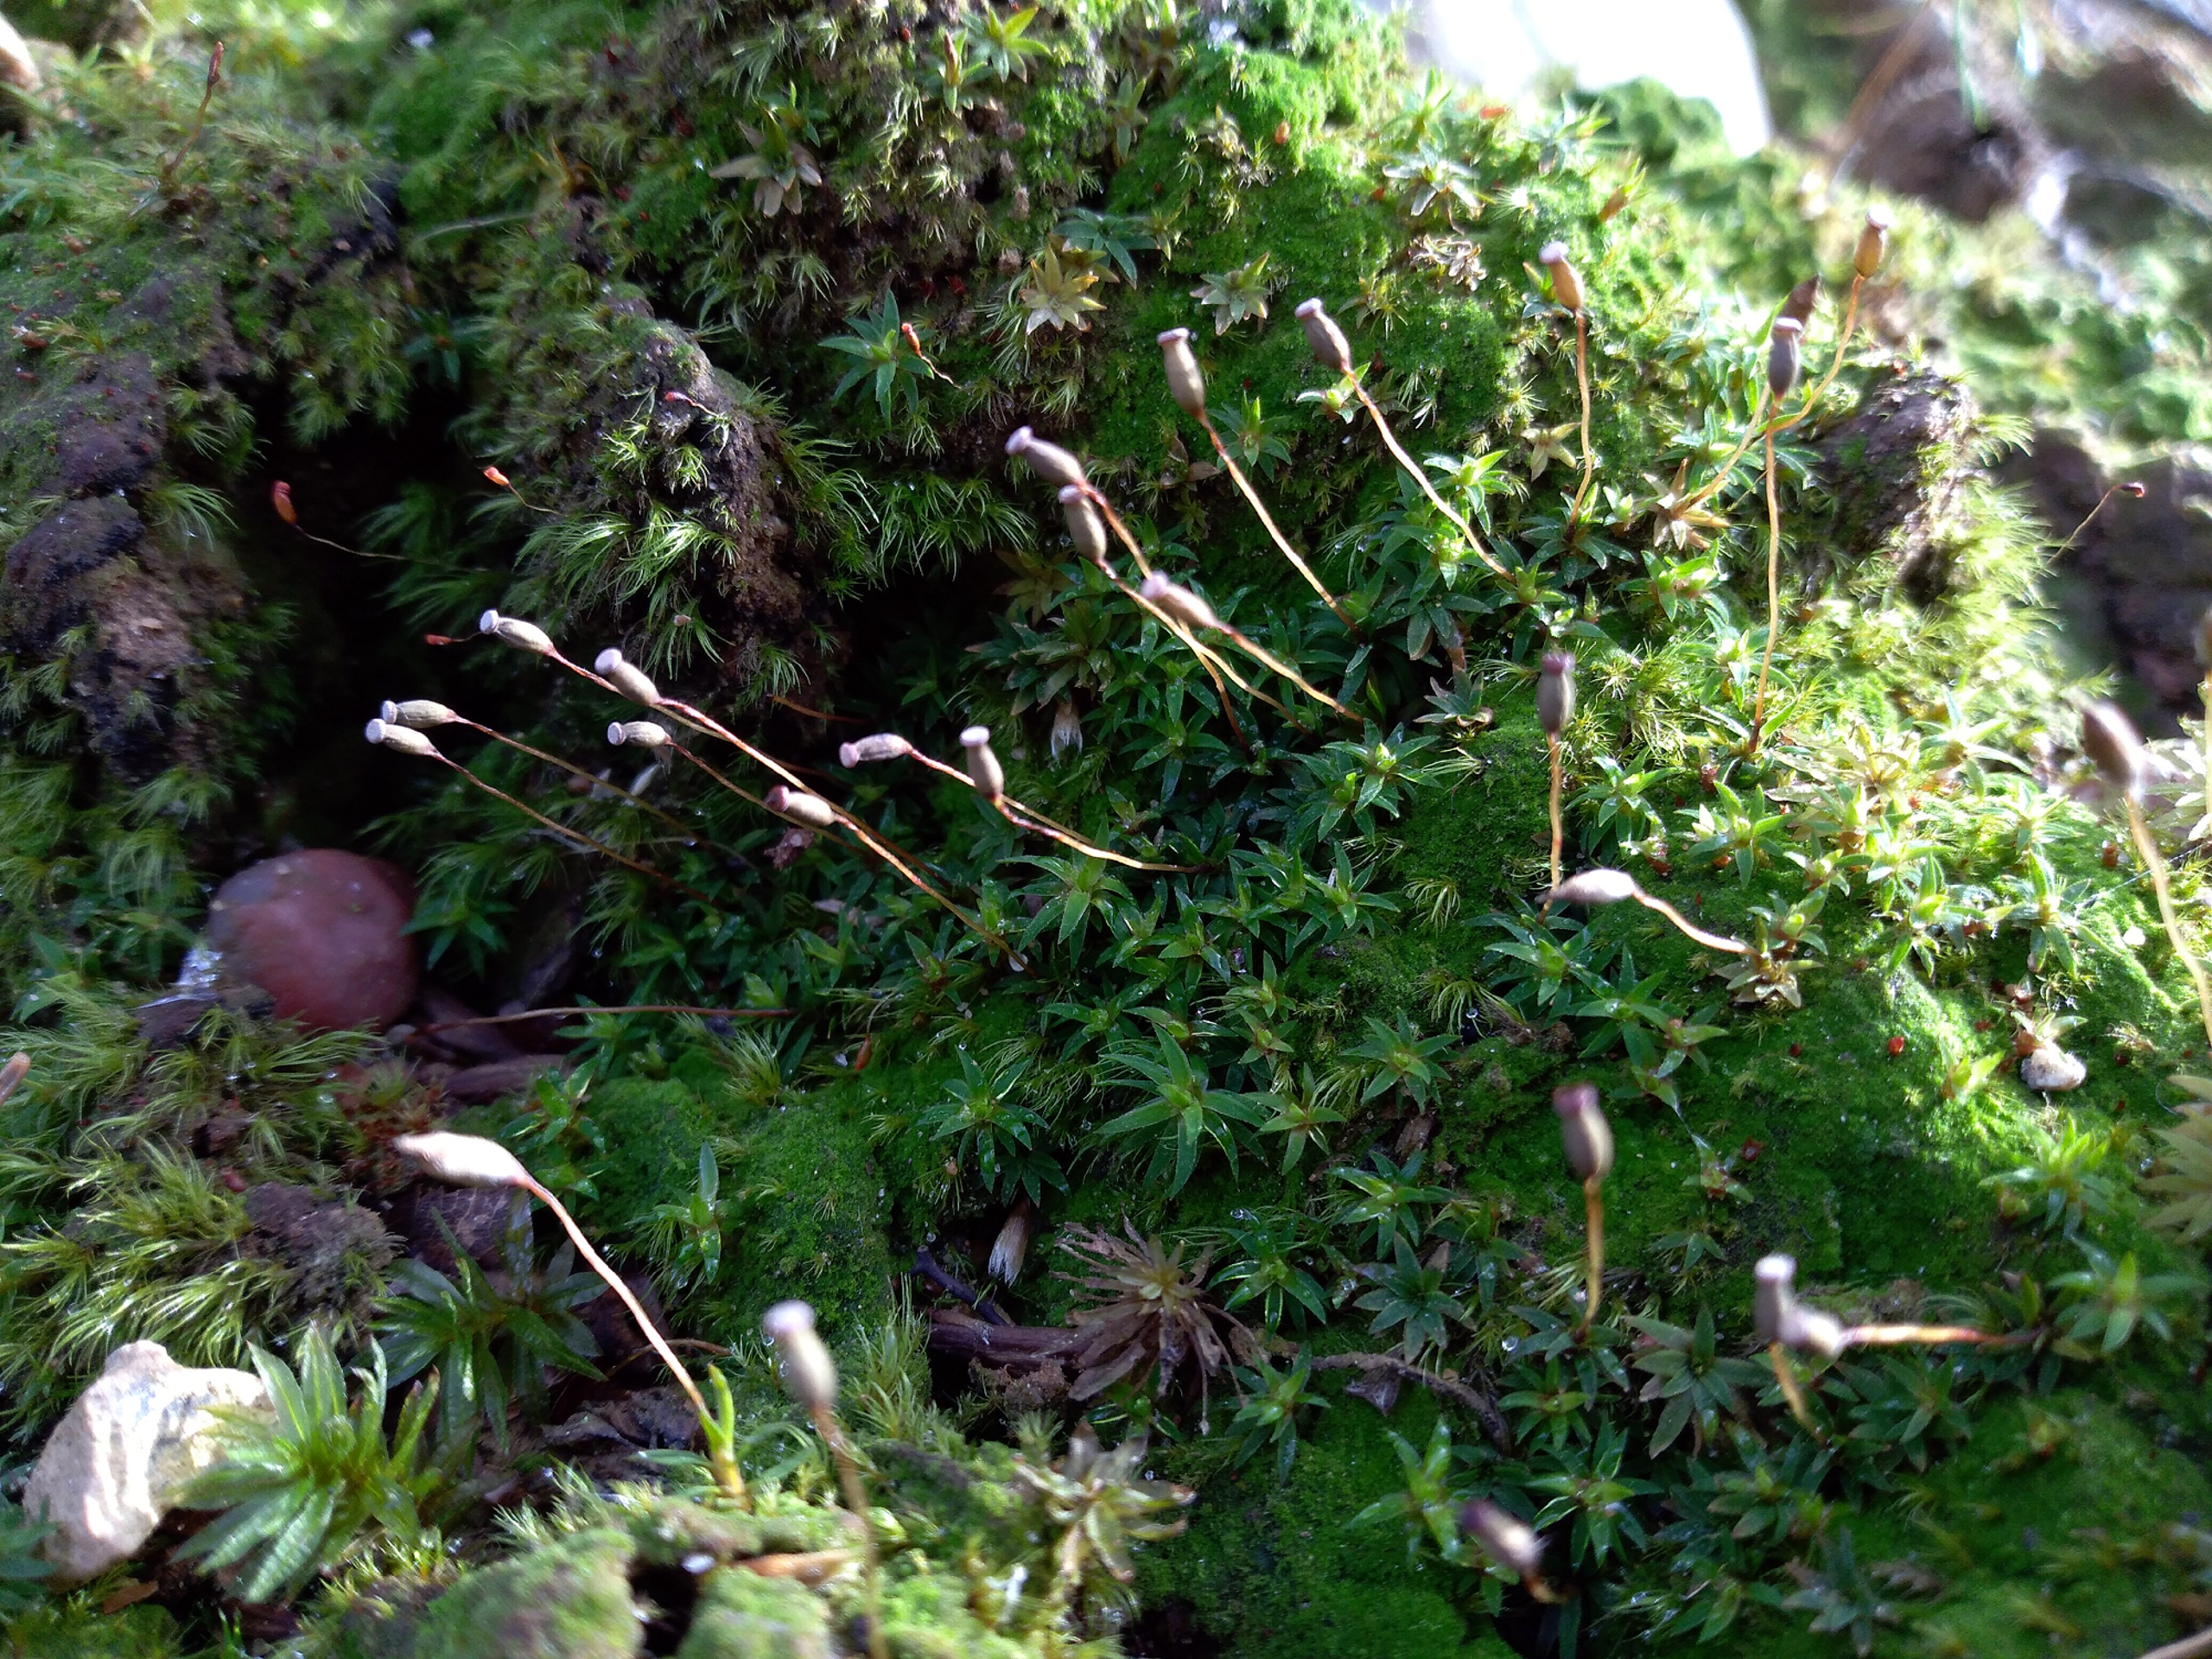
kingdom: Plantae
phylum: Bryophyta
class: Polytrichopsida
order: Polytrichales
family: Polytrichaceae
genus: Pogonatum
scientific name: Pogonatum aloides
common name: Smal urnekapsel
